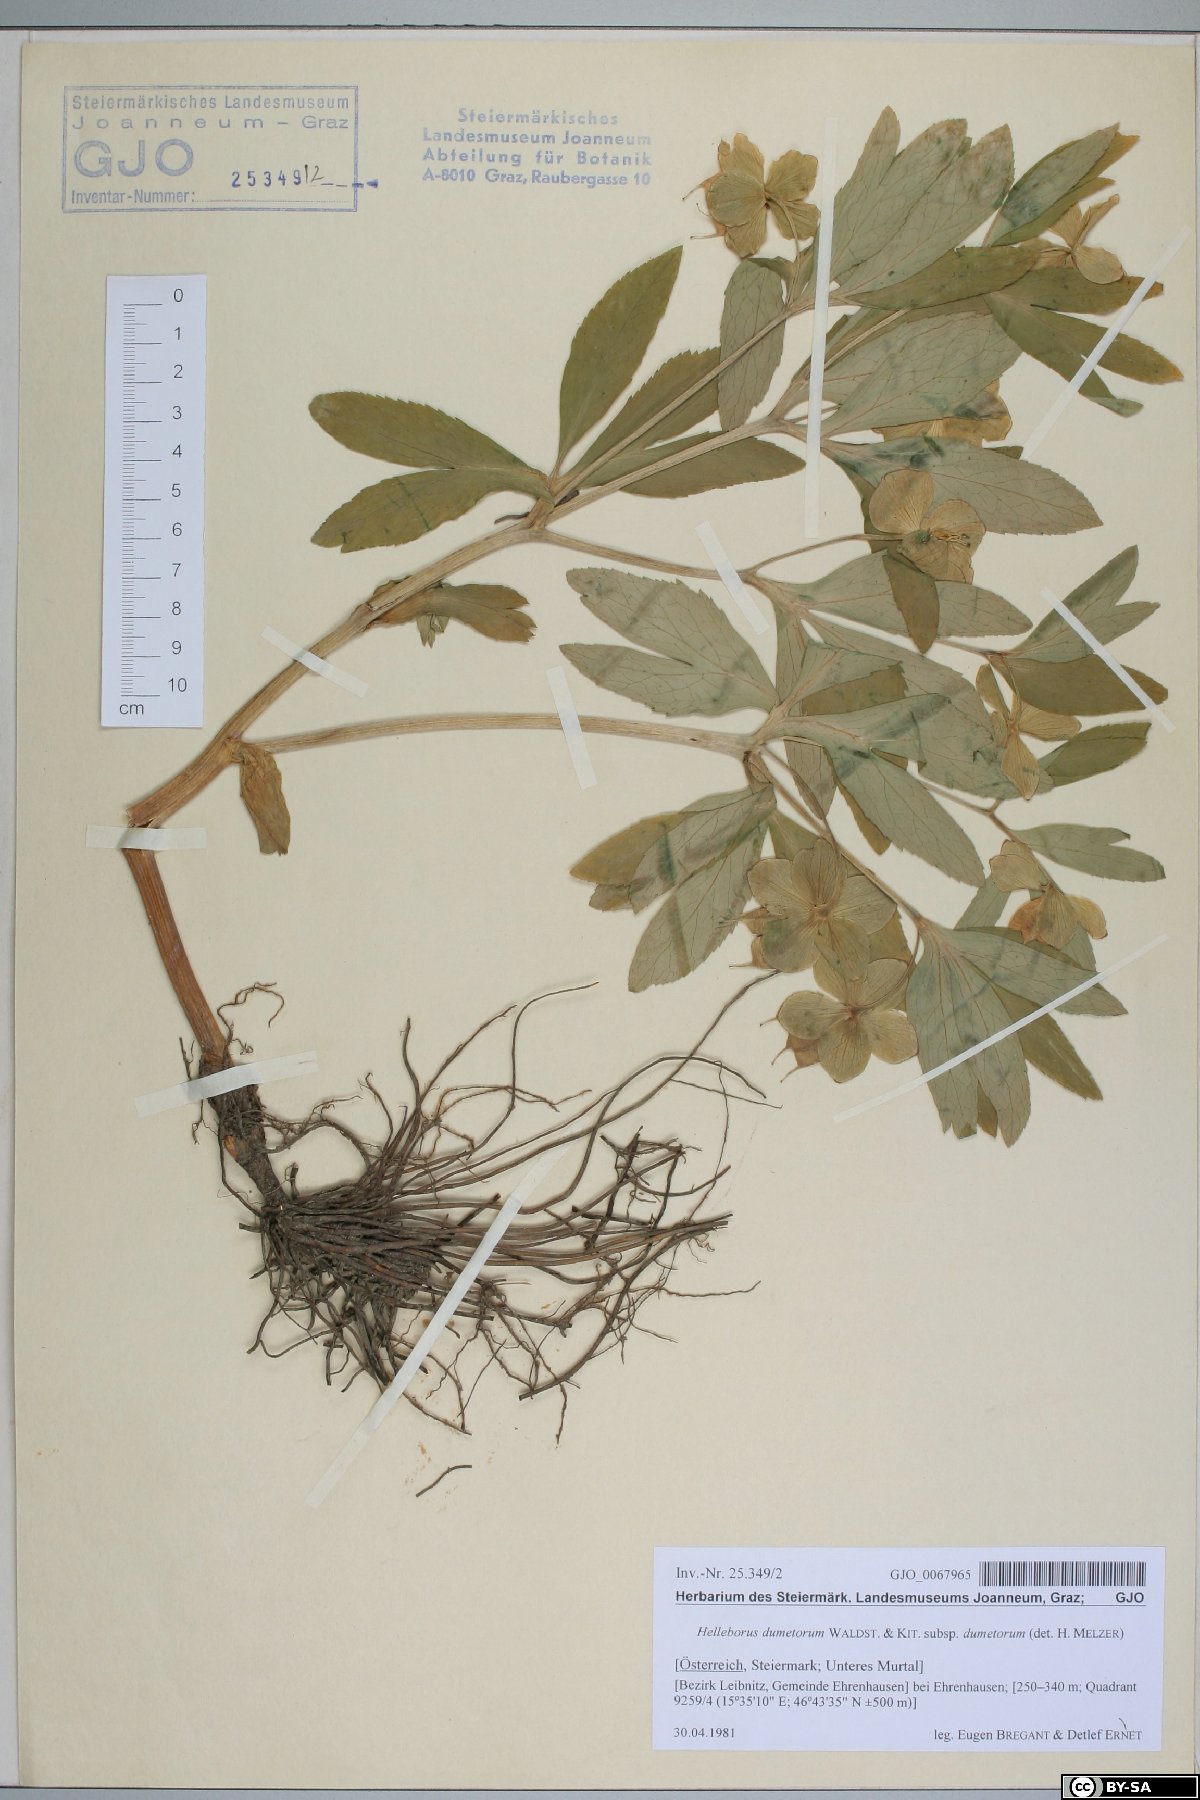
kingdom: Plantae
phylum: Tracheophyta
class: Magnoliopsida
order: Ranunculales
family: Ranunculaceae
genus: Helleborus
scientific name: Helleborus dumetorum
